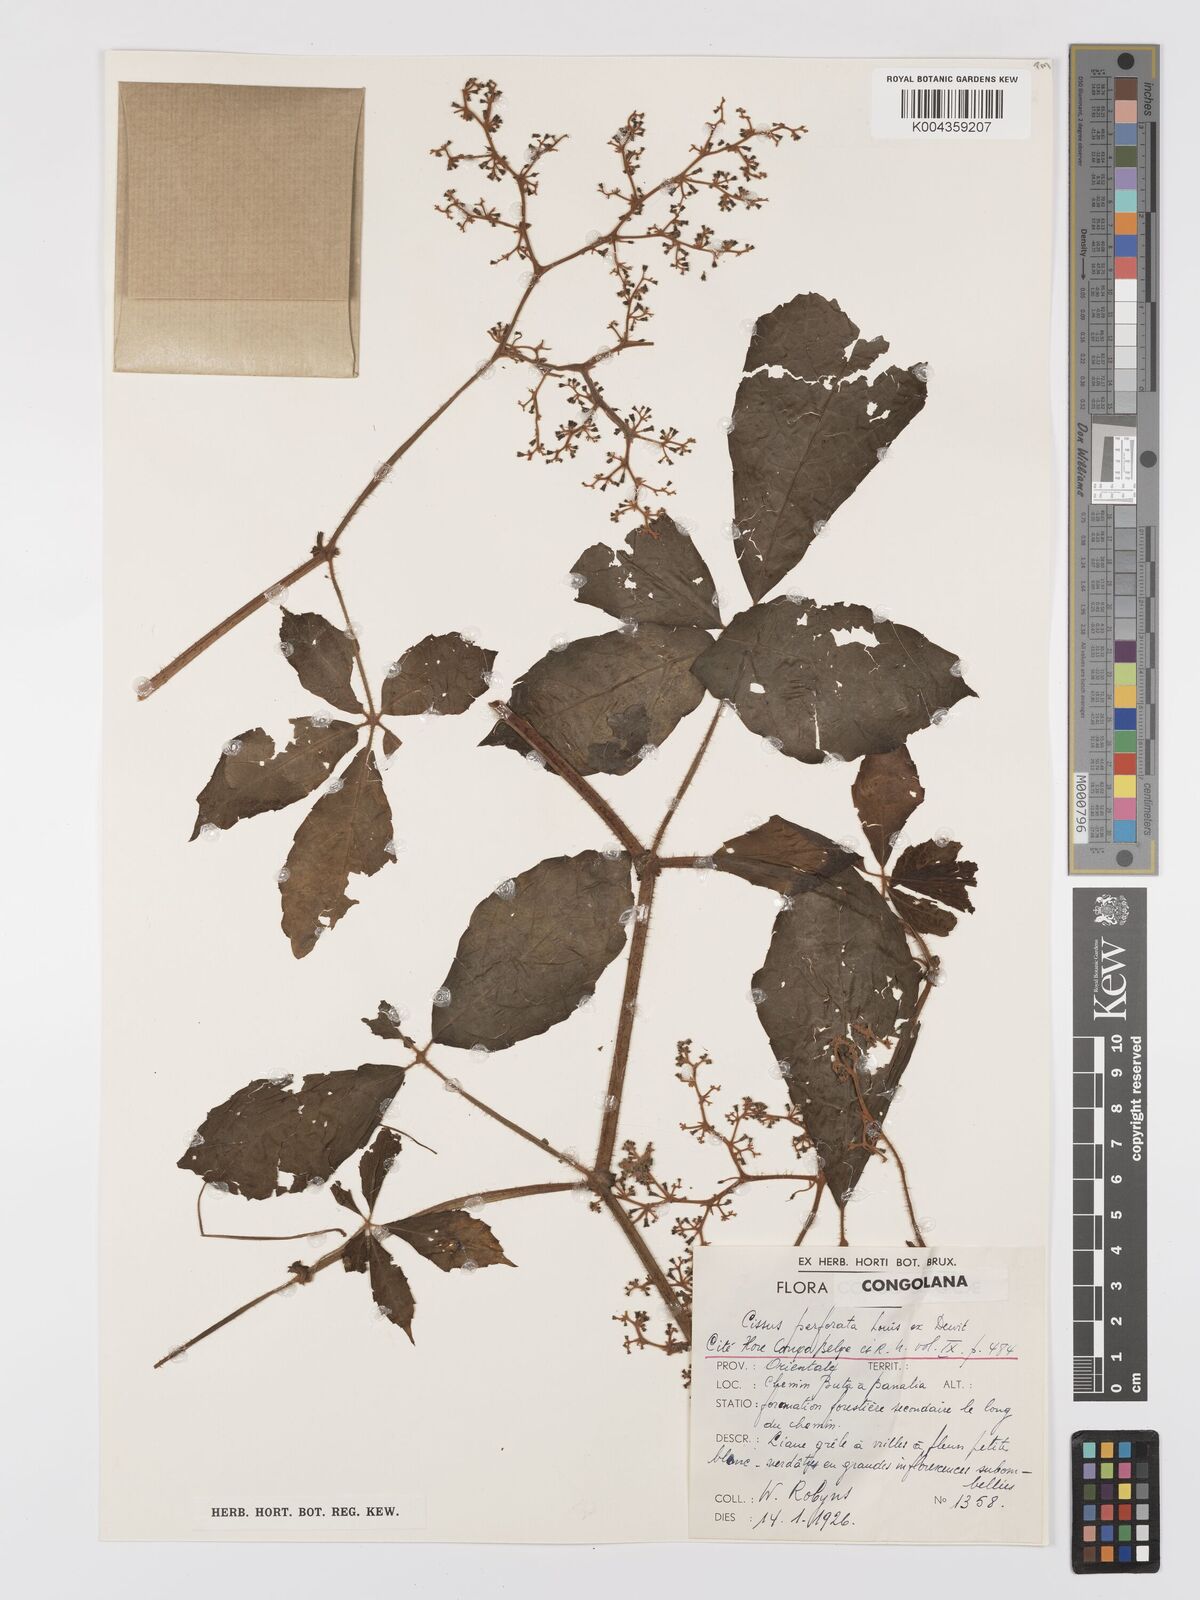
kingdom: Plantae
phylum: Tracheophyta
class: Magnoliopsida
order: Vitales
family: Vitaceae
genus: Cyphostemma
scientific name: Cyphostemma perforatum
